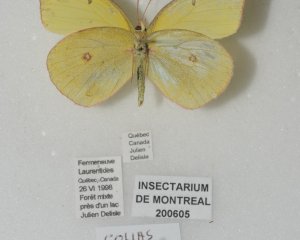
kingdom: Animalia
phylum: Arthropoda
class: Insecta
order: Lepidoptera
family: Pieridae
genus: Colias
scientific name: Colias interior
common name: Pink-edged Sulphur
